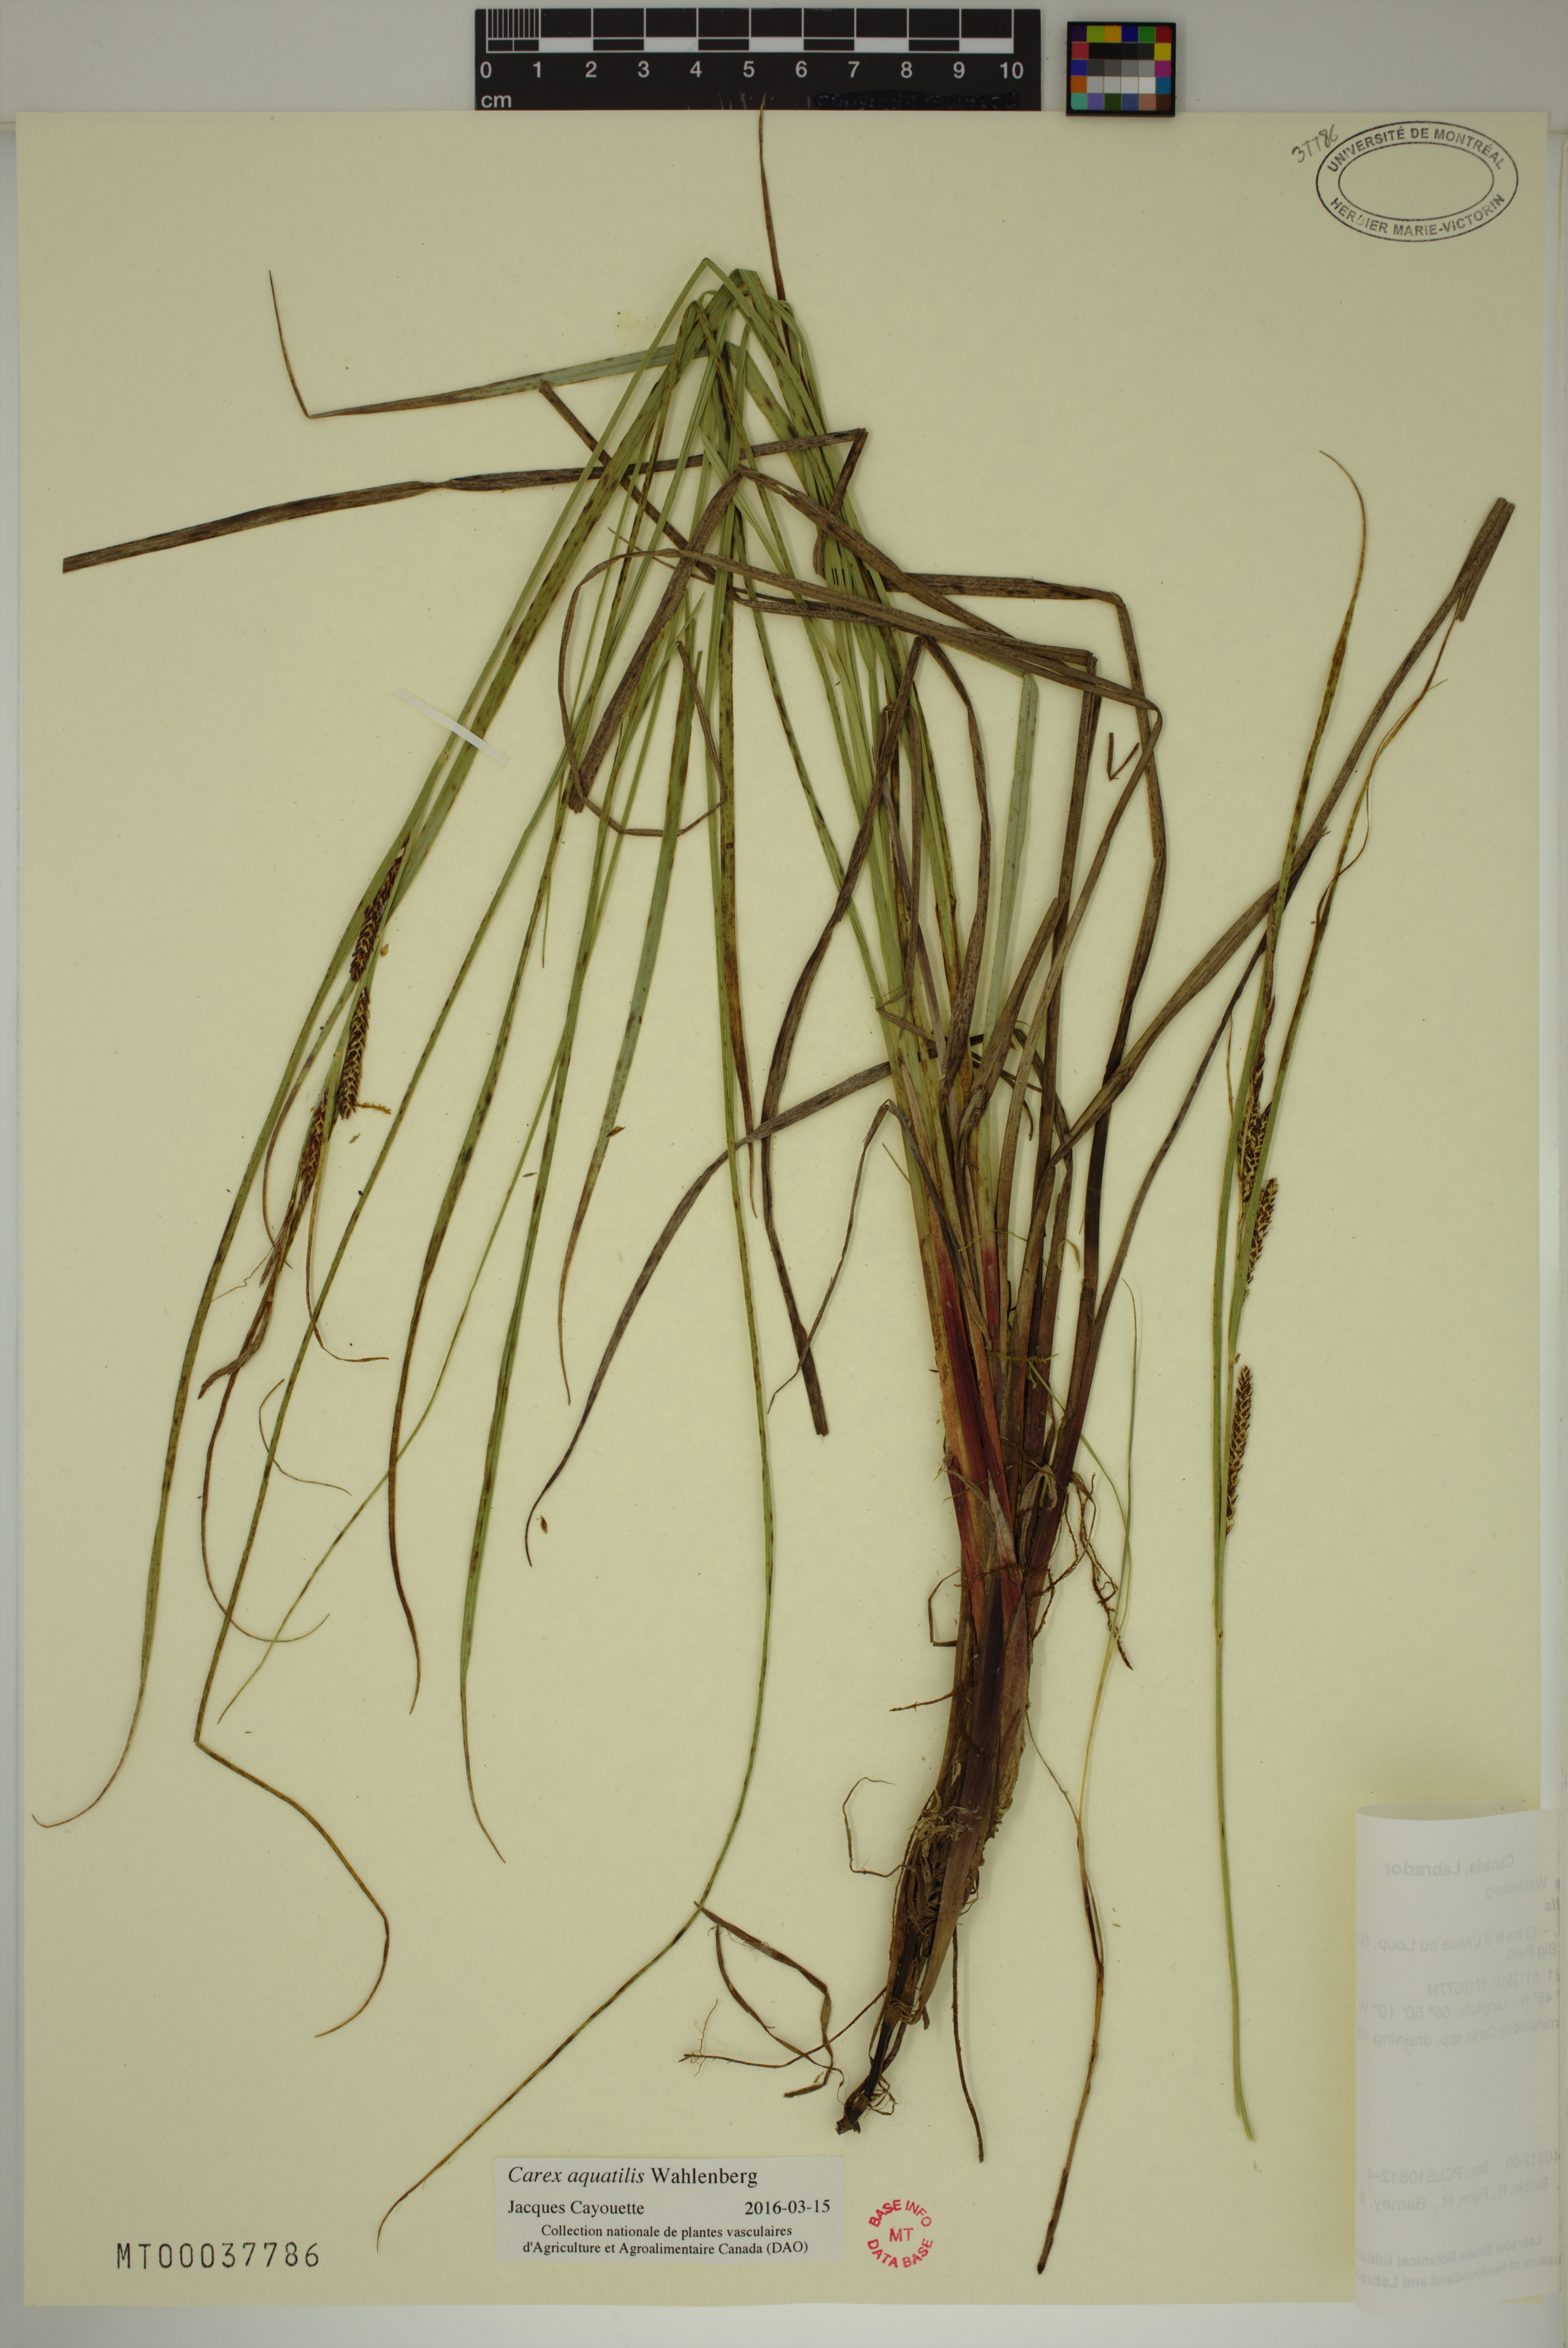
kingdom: Plantae
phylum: Tracheophyta
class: Liliopsida
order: Poales
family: Cyperaceae
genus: Carex
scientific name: Carex aquatilis
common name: Water sedge
